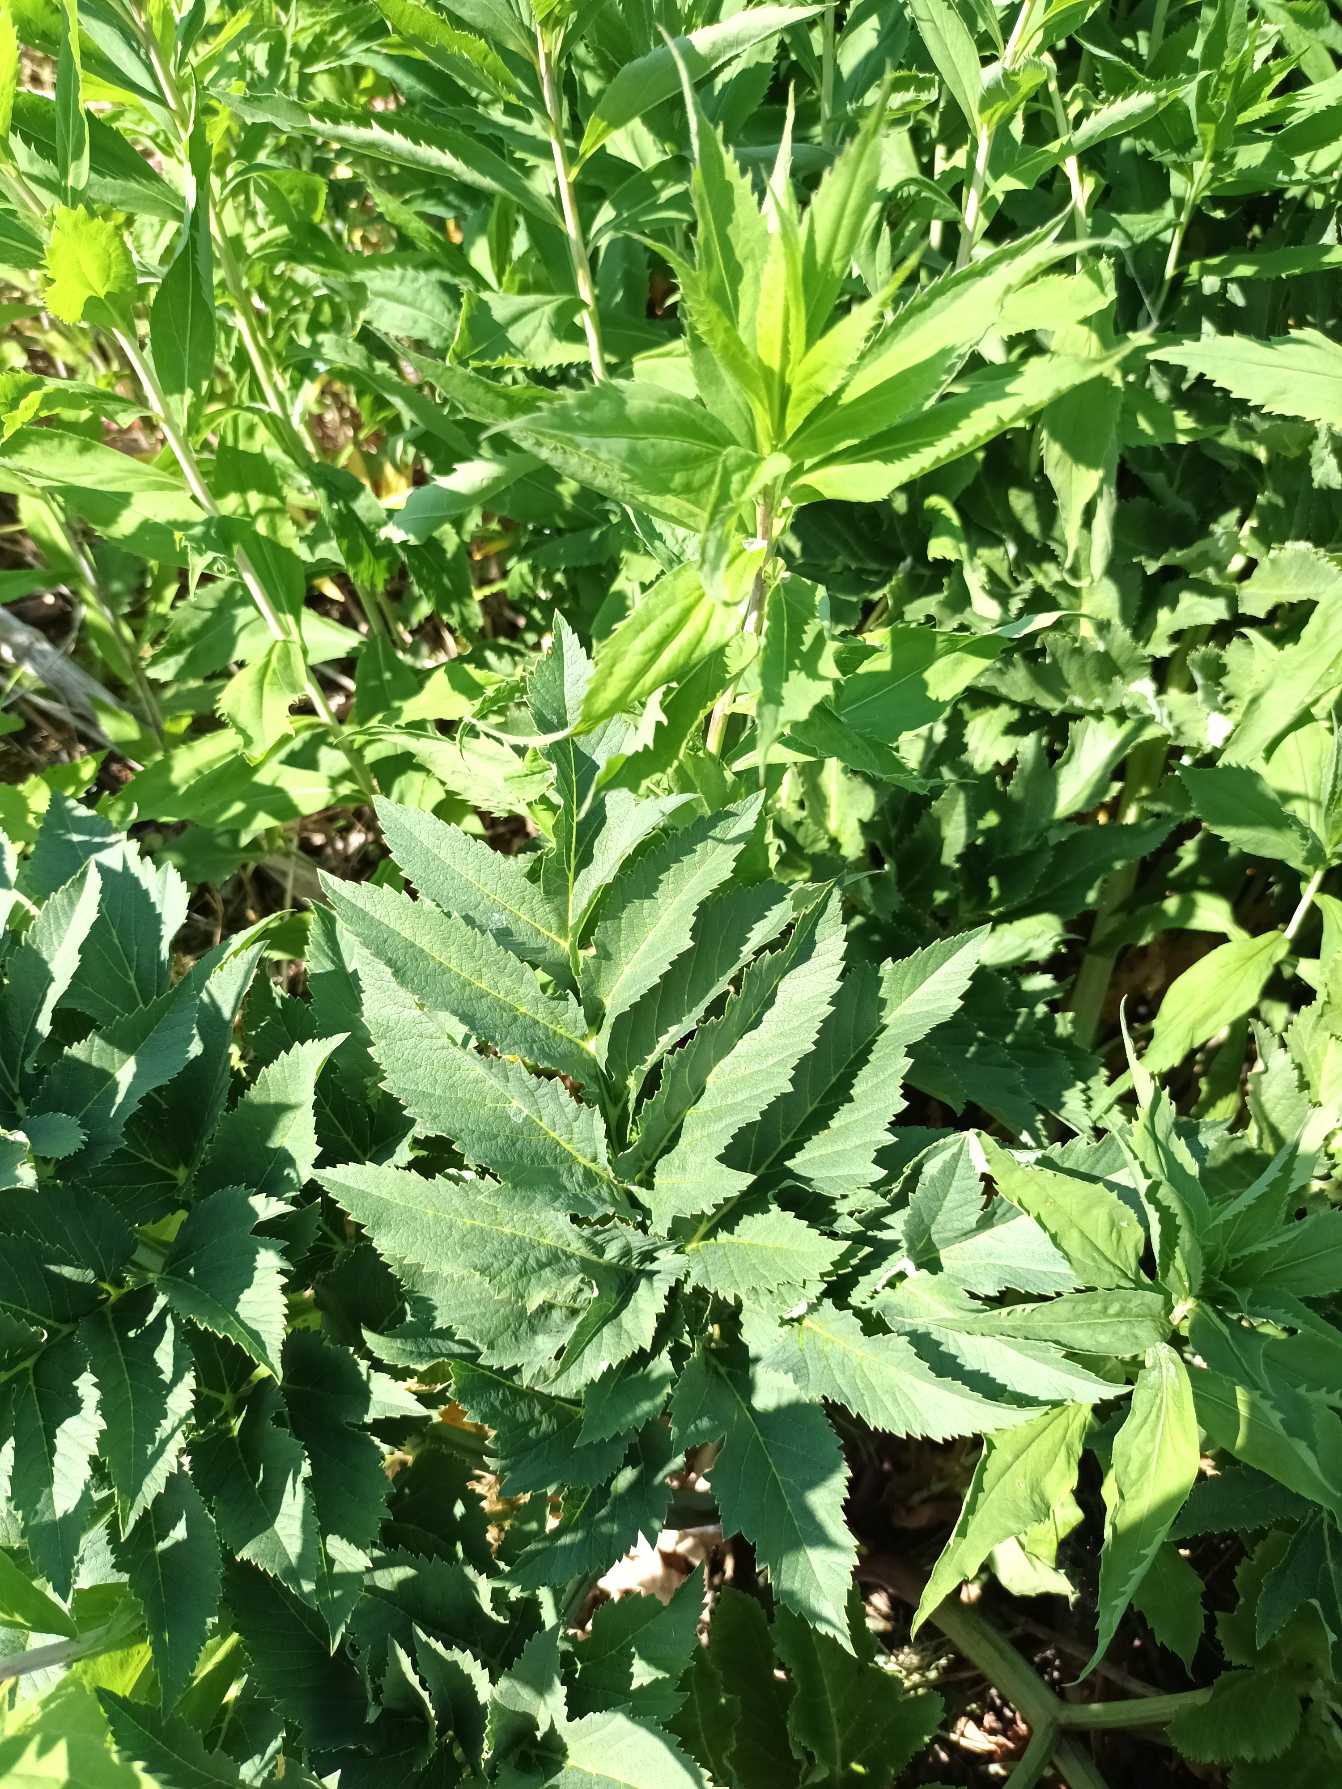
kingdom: Plantae
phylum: Tracheophyta
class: Magnoliopsida
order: Apiales
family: Apiaceae
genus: Angelica
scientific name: Angelica archangelica
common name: Strand-kvan
